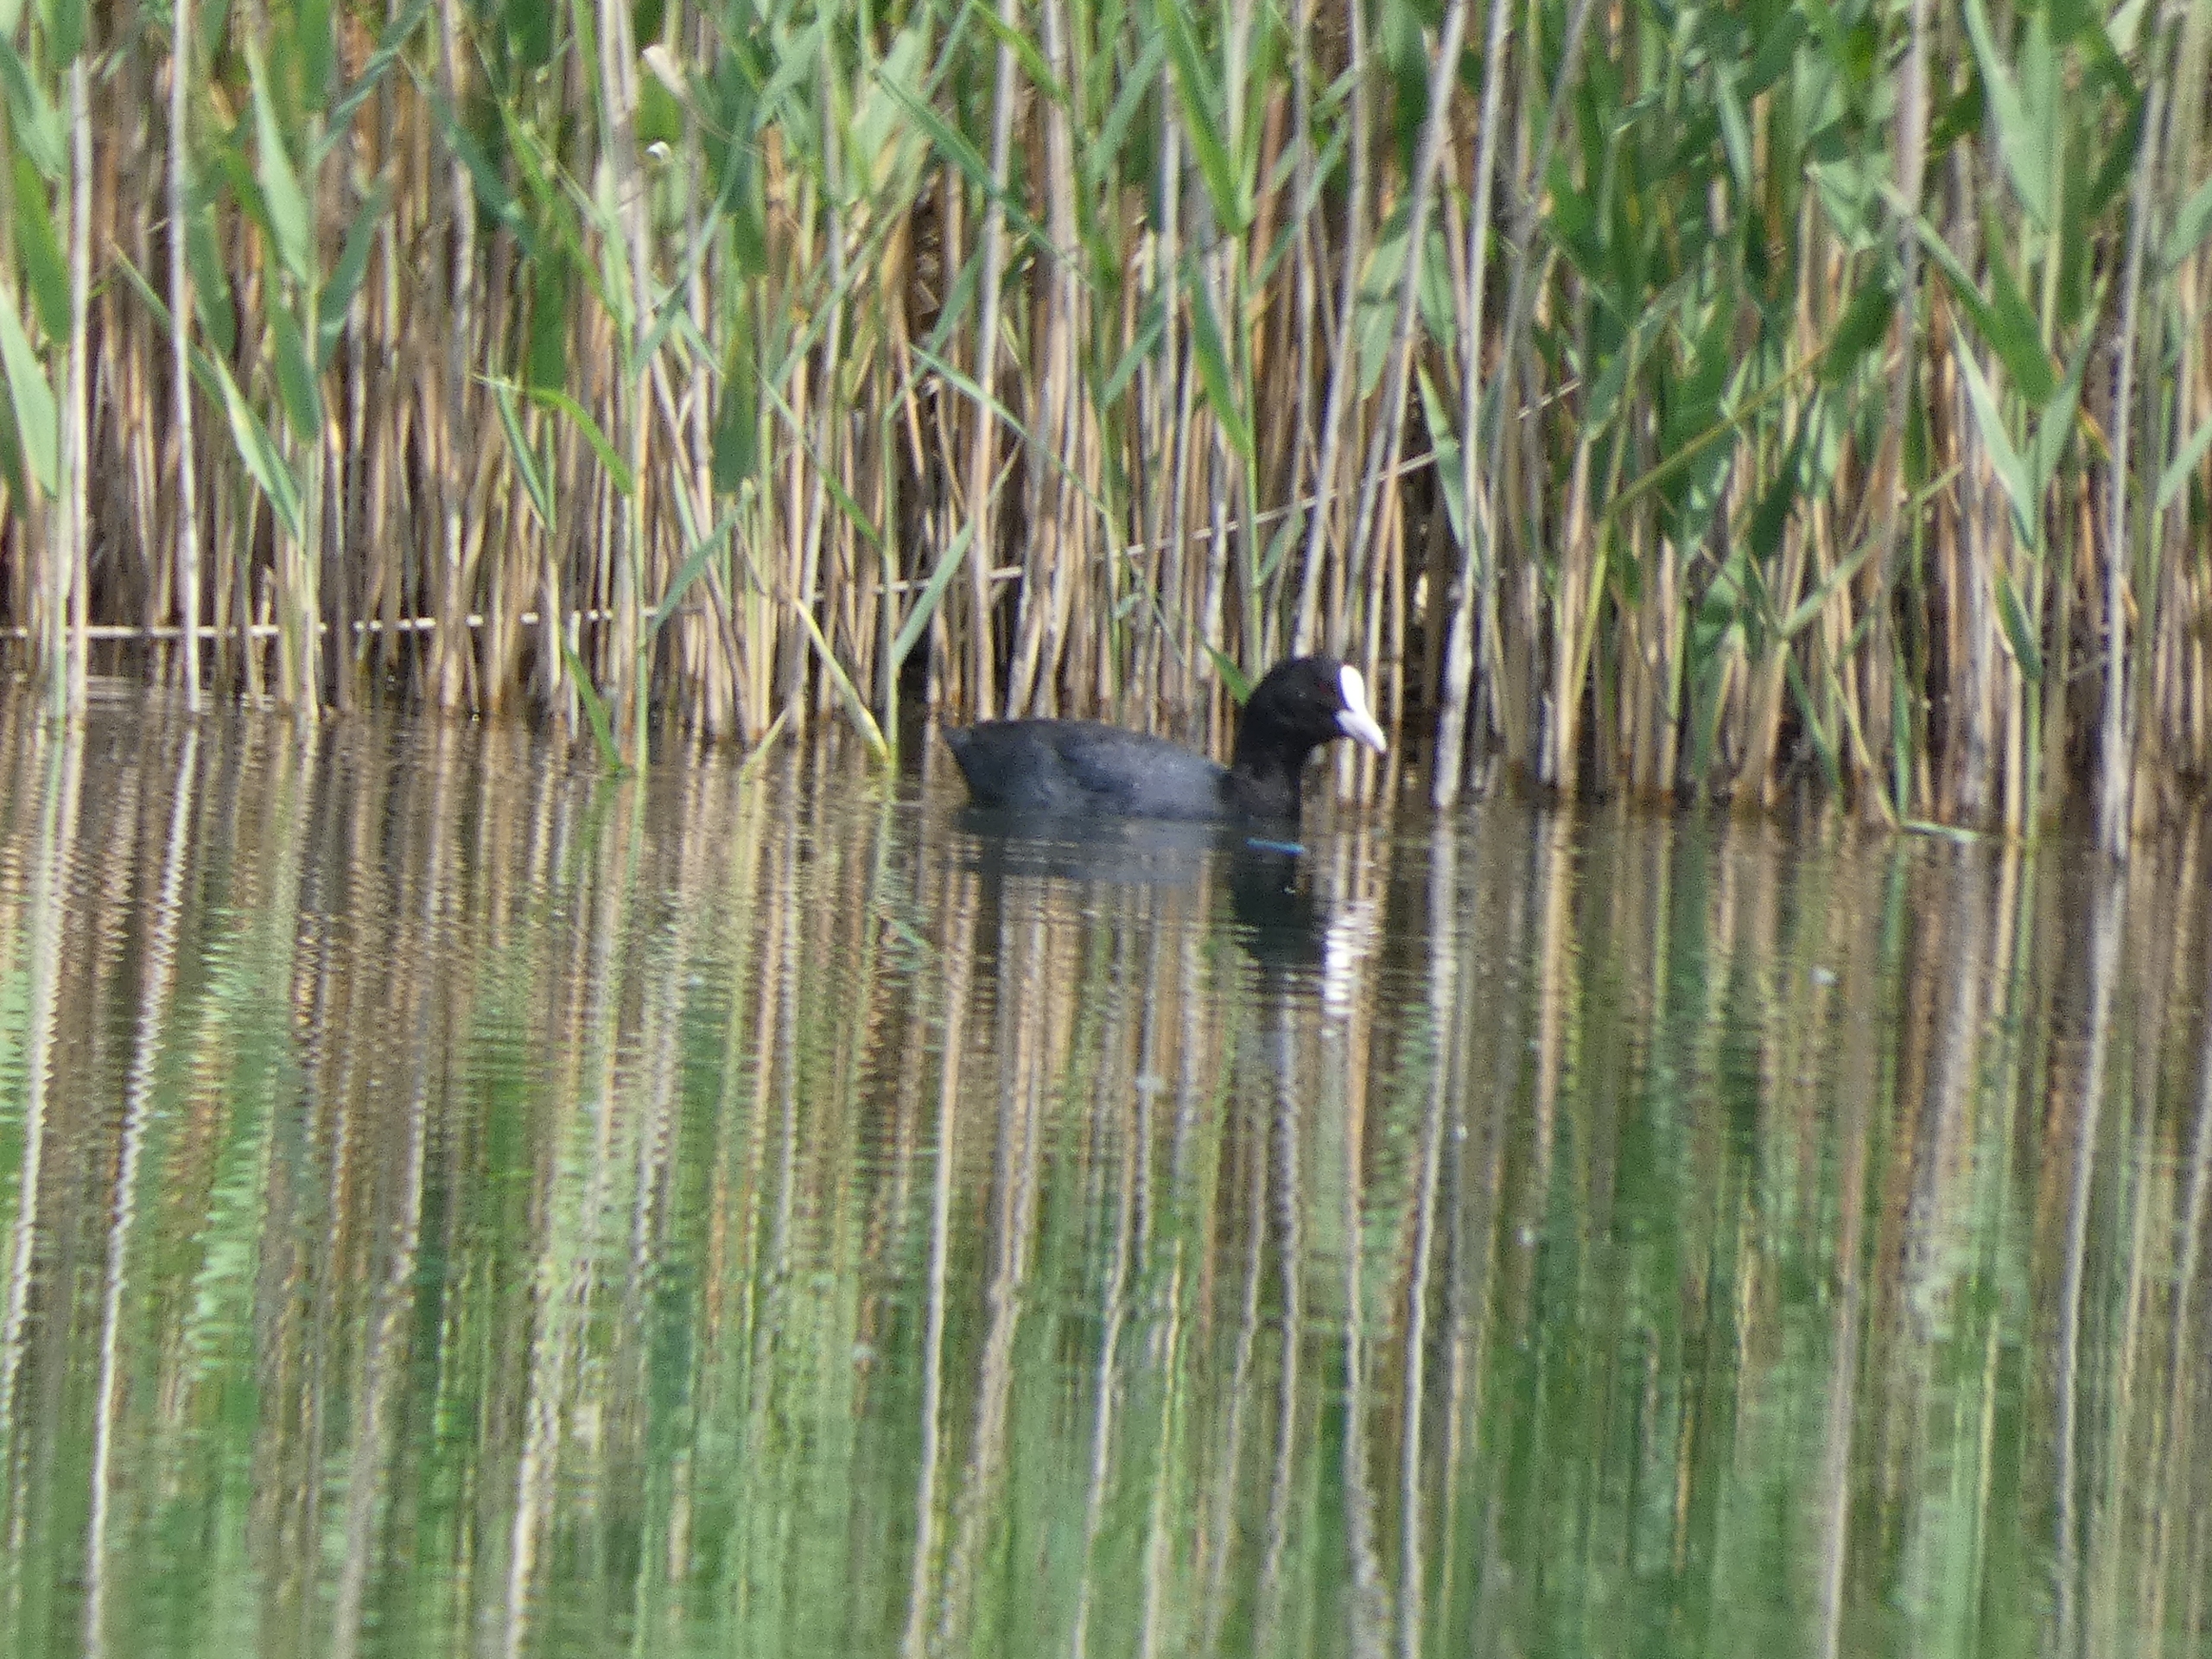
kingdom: Animalia
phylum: Chordata
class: Aves
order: Gruiformes
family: Rallidae
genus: Fulica
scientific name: Fulica atra
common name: Blishøne
